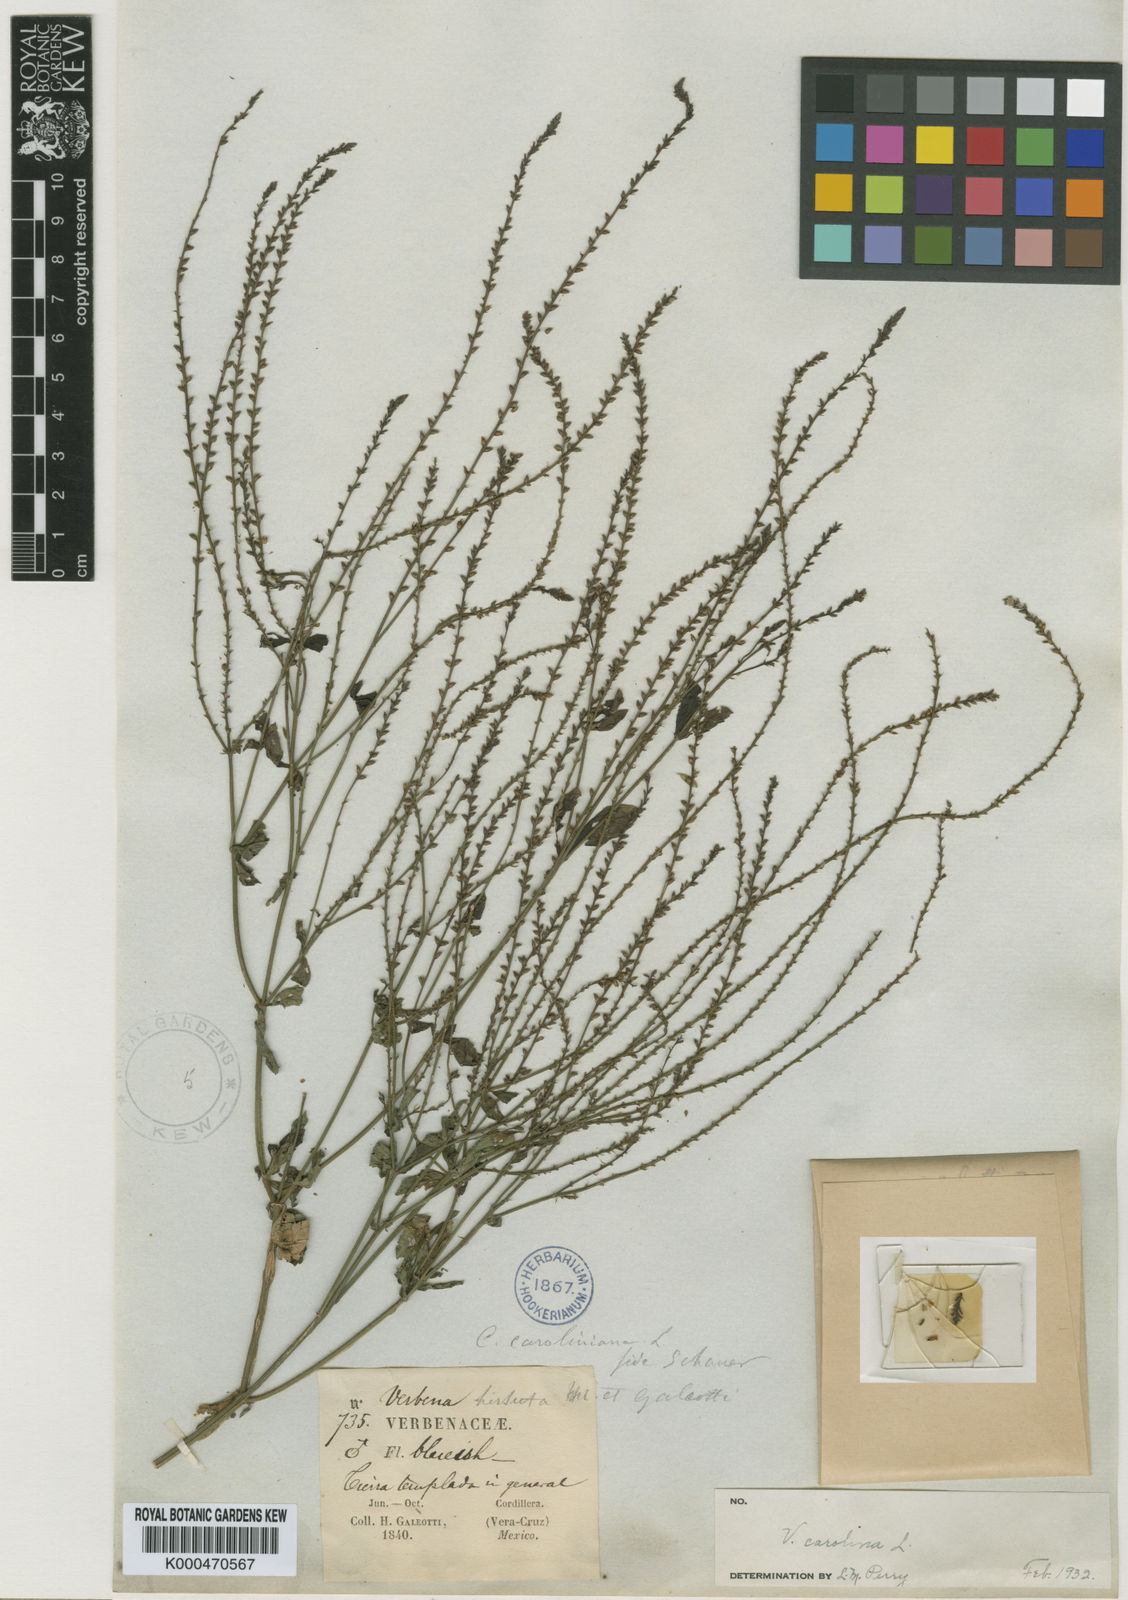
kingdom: Plantae
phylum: Tracheophyta
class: Magnoliopsida
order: Lamiales
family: Verbenaceae
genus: Verbena
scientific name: Verbena carolina
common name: Carolina vervain
